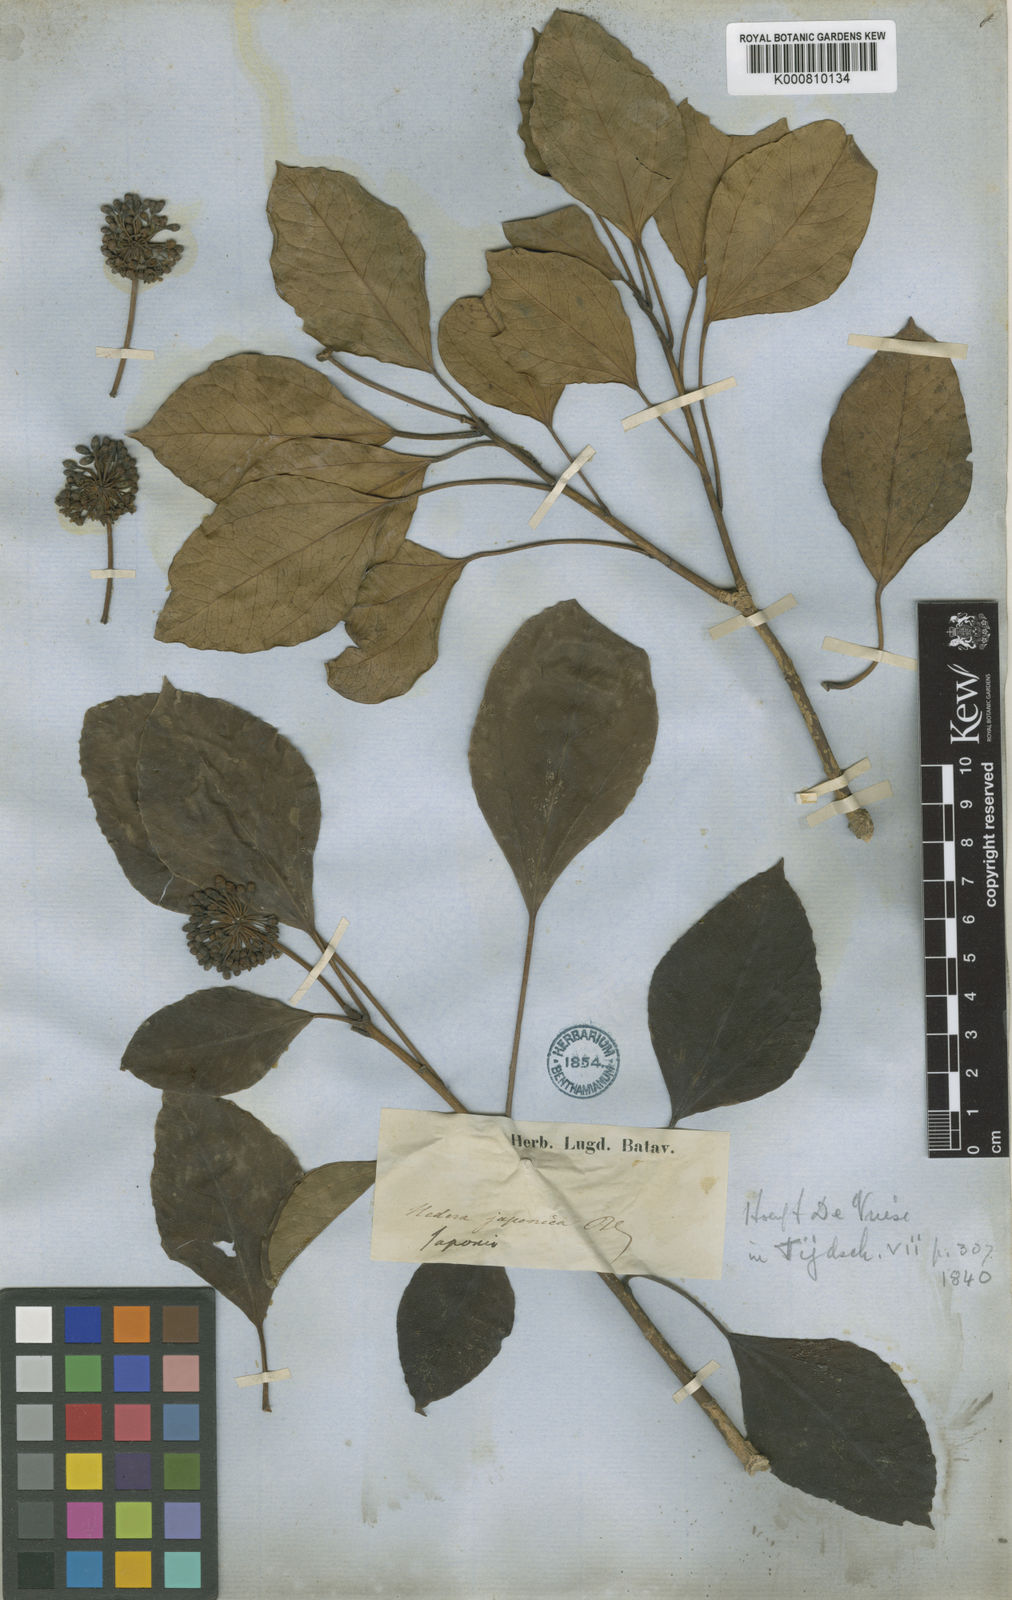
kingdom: Plantae
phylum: Tracheophyta
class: Magnoliopsida
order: Apiales
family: Araliaceae
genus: Hedera
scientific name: Hedera rhombea
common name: Japanese ivy
